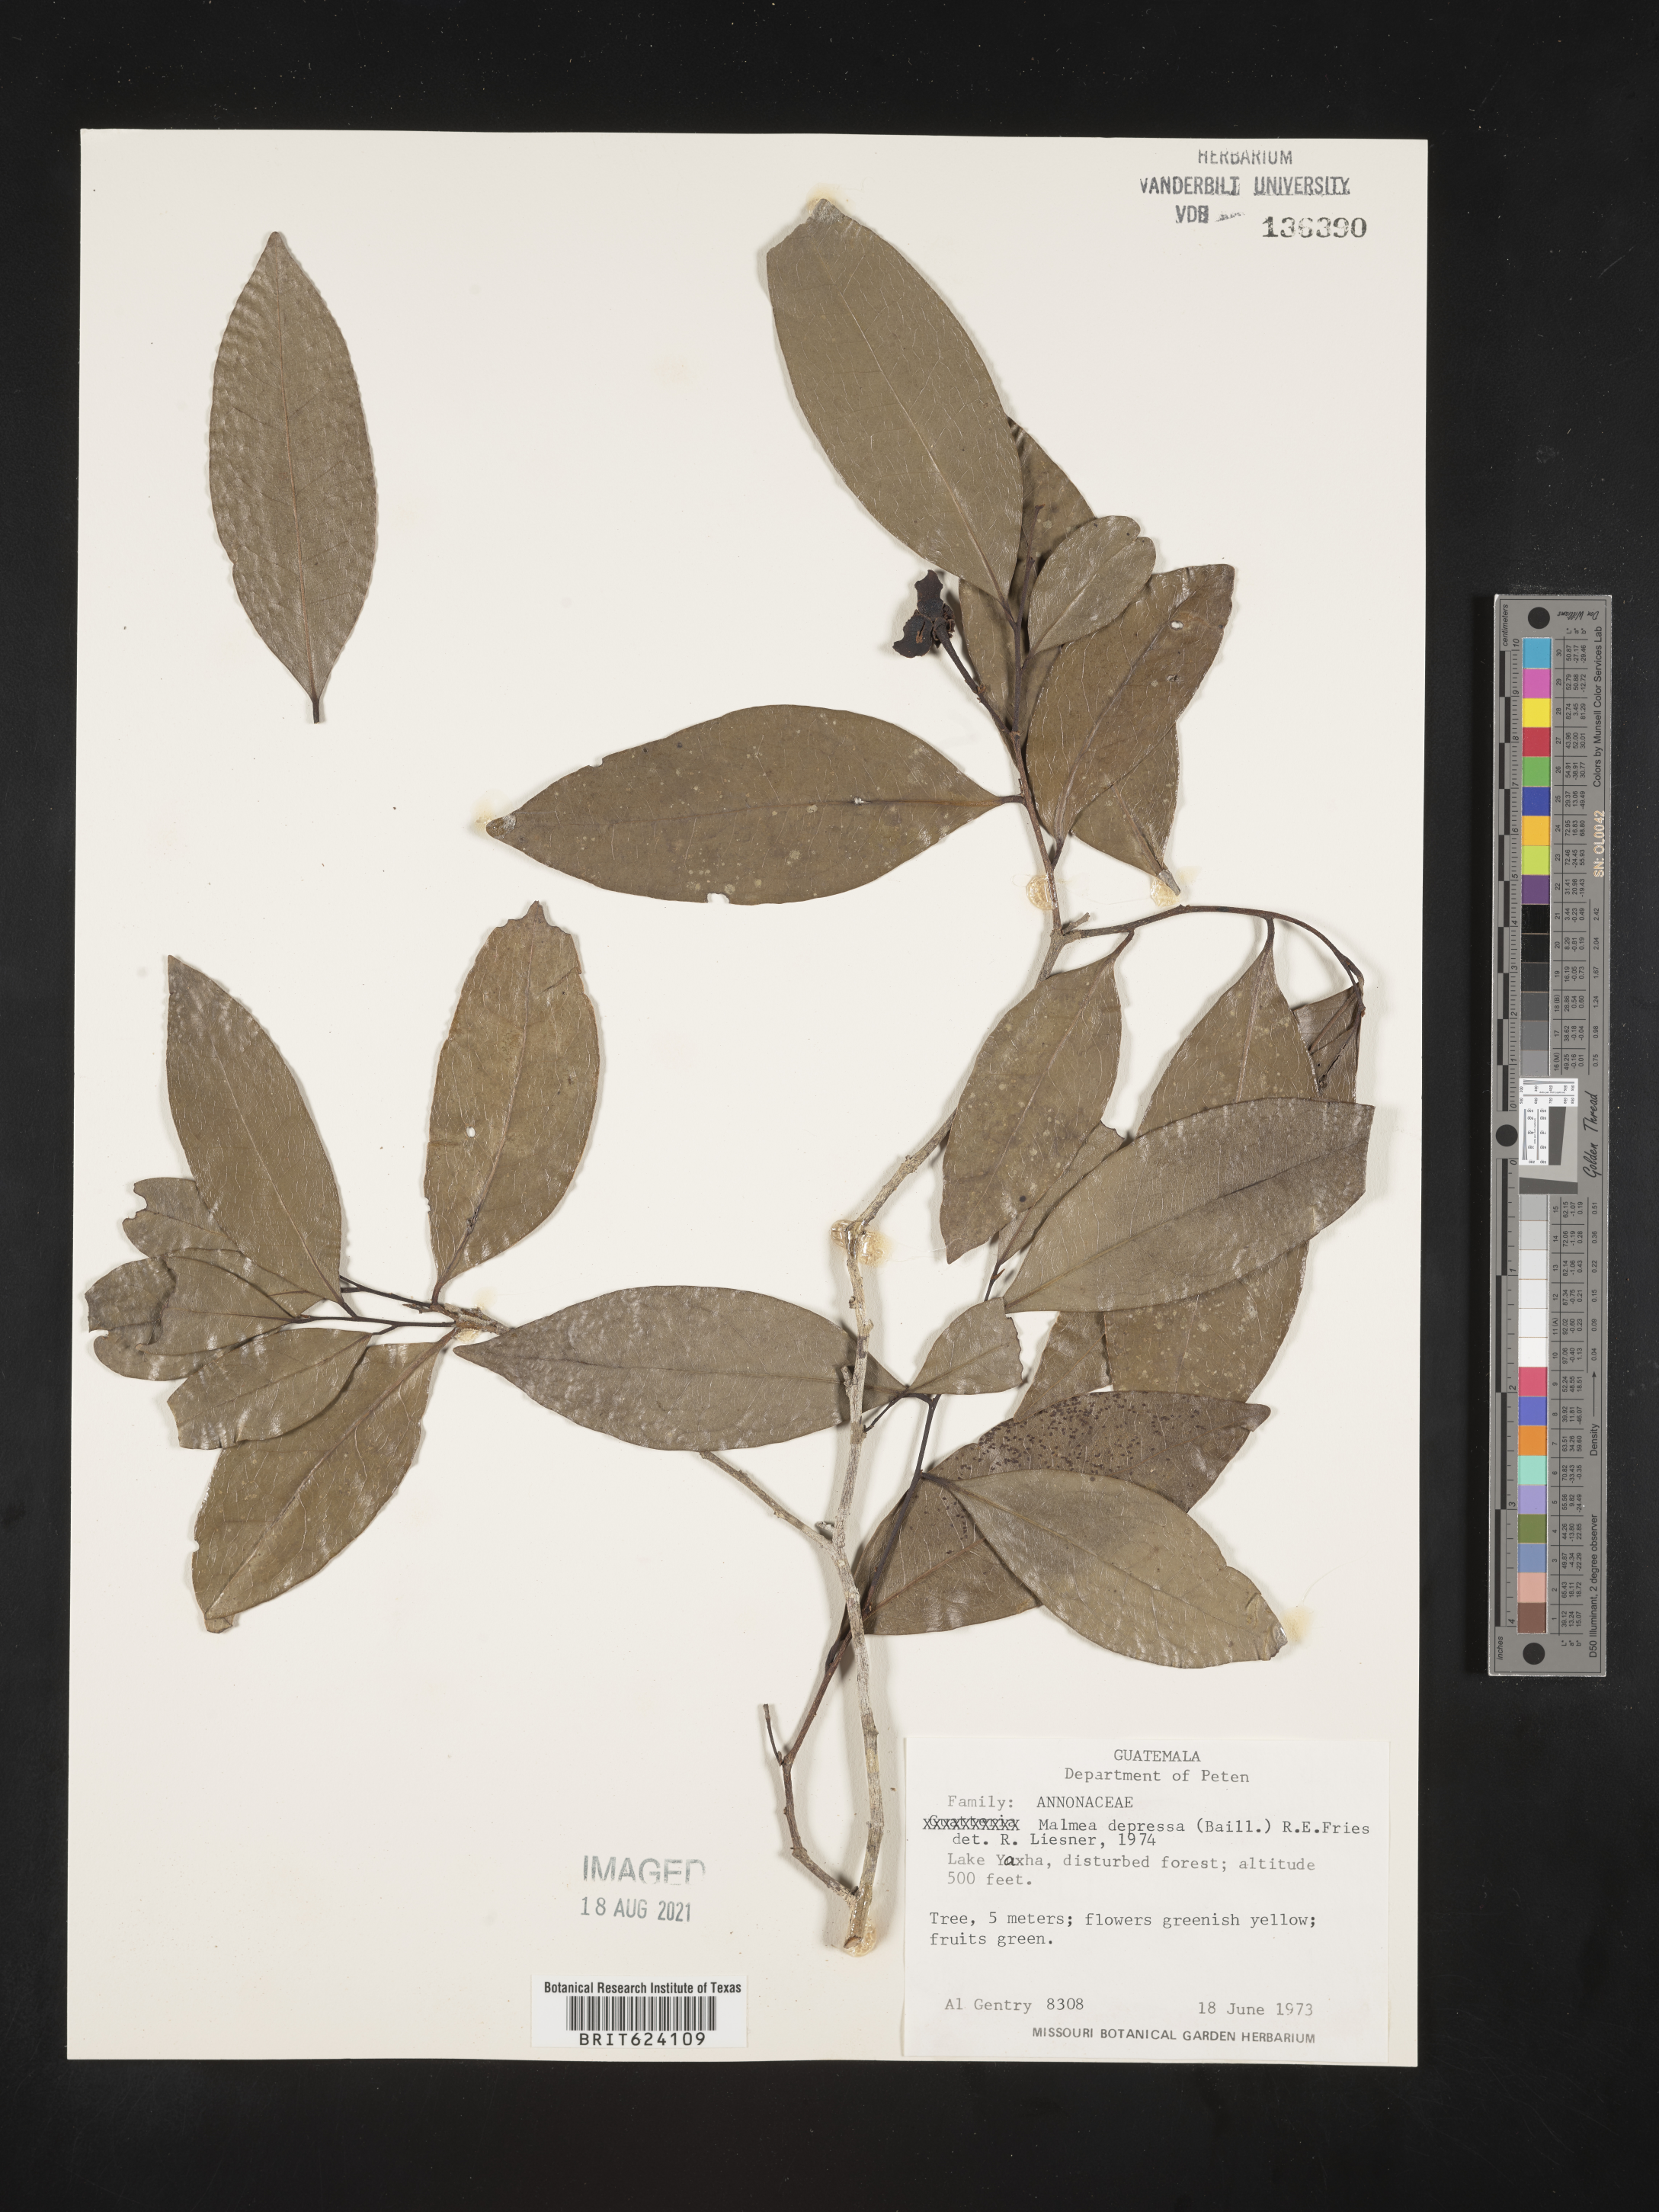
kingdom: Plantae
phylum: Tracheophyta
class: Magnoliopsida
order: Magnoliales
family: Annonaceae
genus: Malmea
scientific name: Malmea depressa
